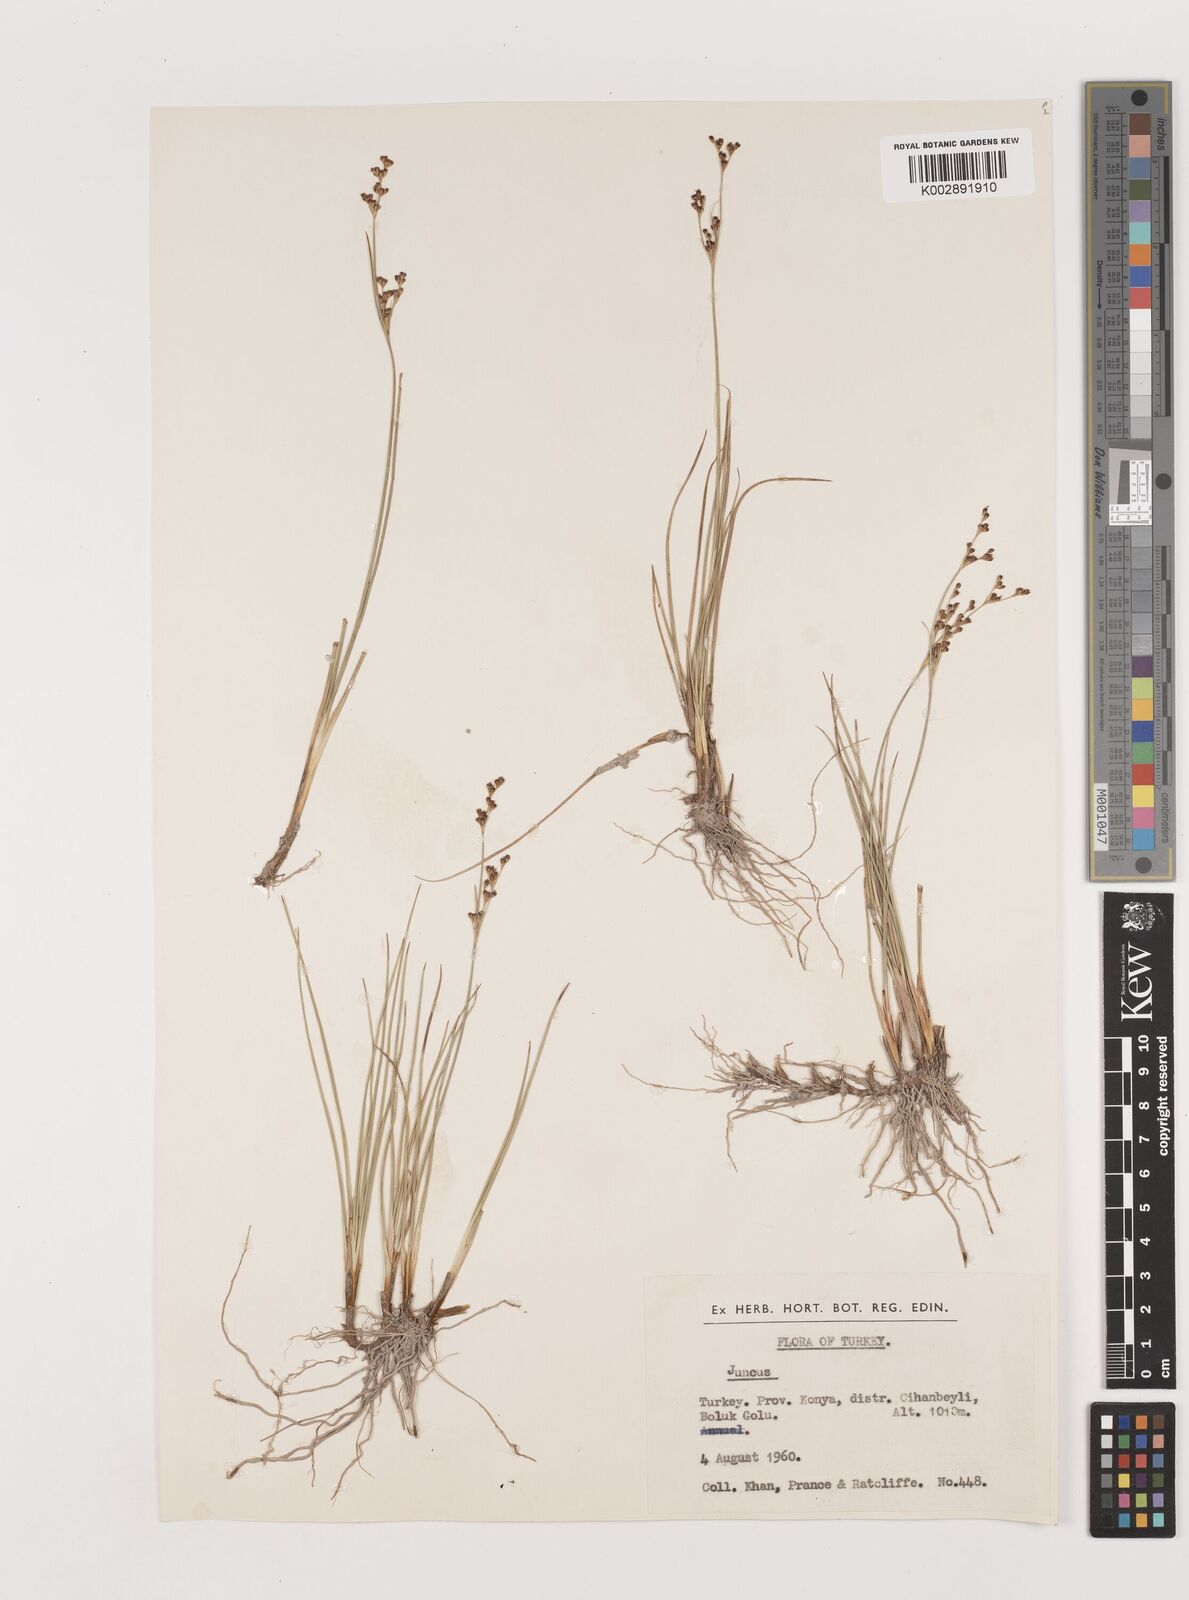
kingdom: Plantae
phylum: Tracheophyta
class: Liliopsida
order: Poales
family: Juncaceae
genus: Juncus
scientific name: Juncus
